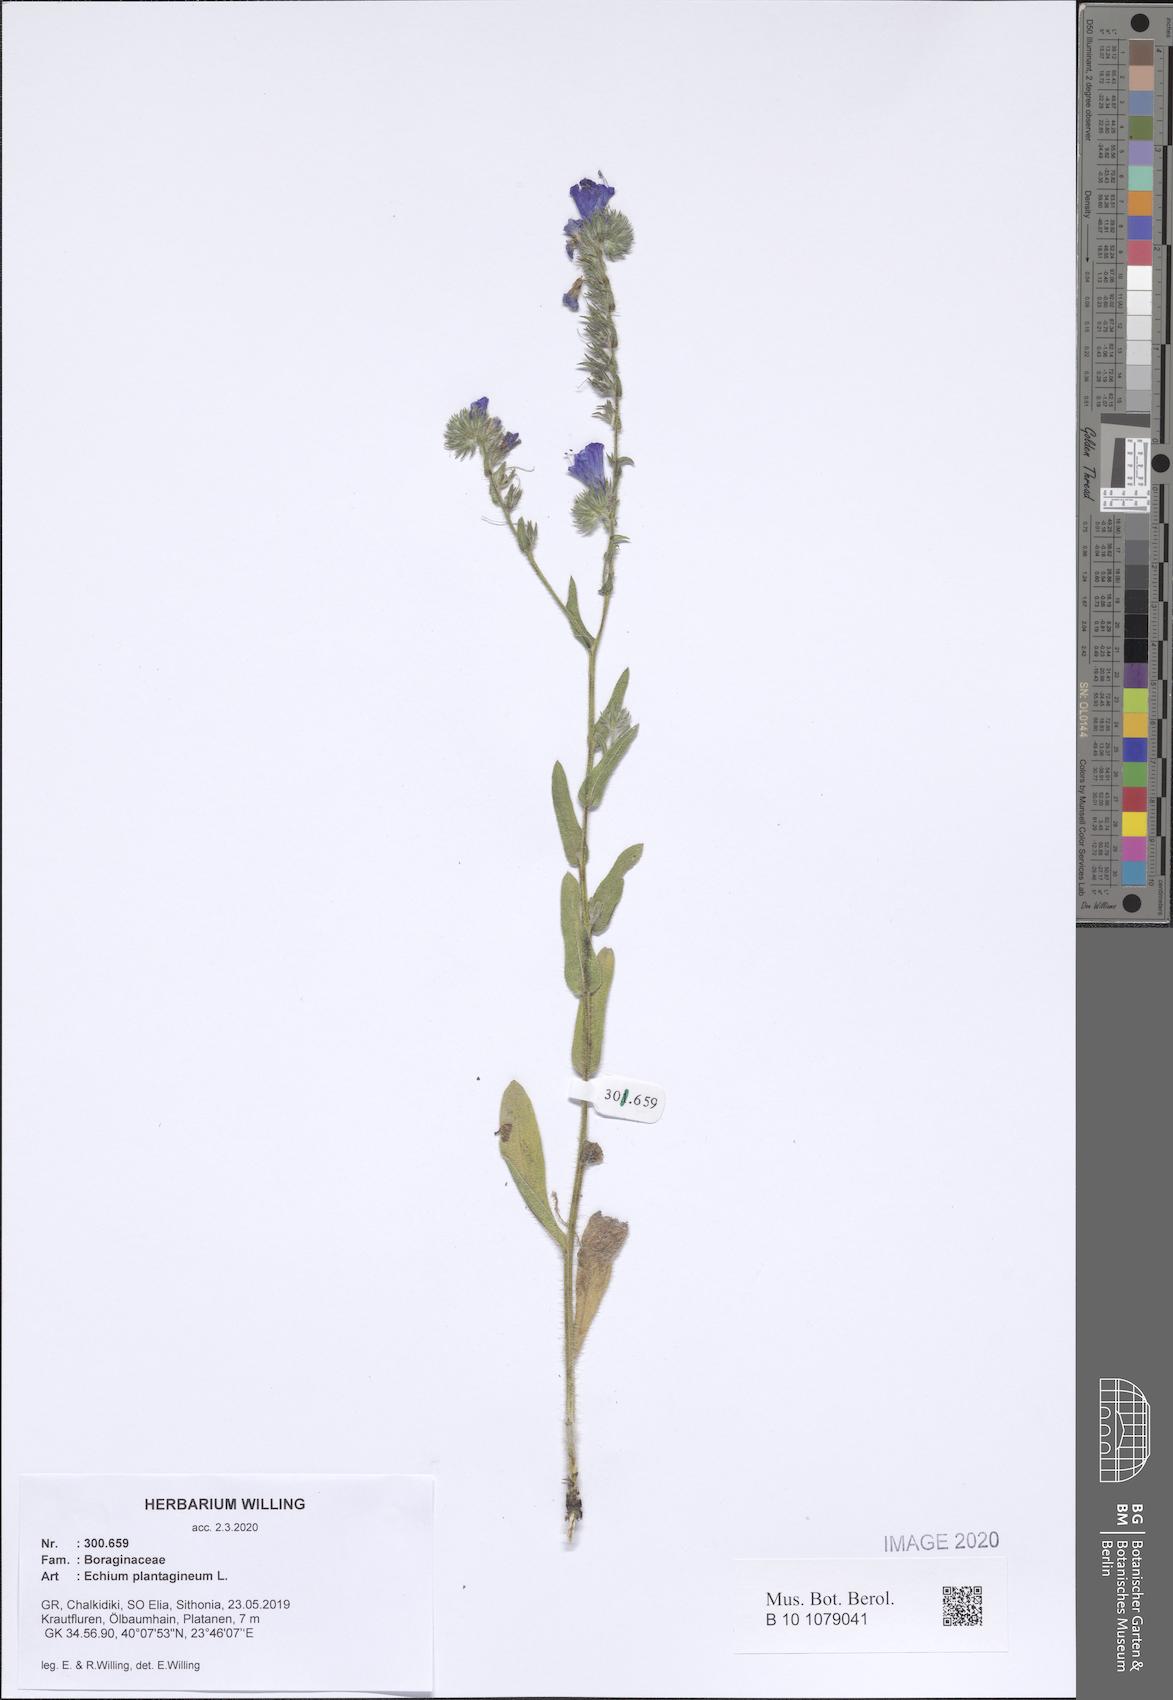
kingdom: Plantae
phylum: Tracheophyta
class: Magnoliopsida
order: Boraginales
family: Boraginaceae
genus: Echium
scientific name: Echium plantagineum
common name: Purple viper's-bugloss
